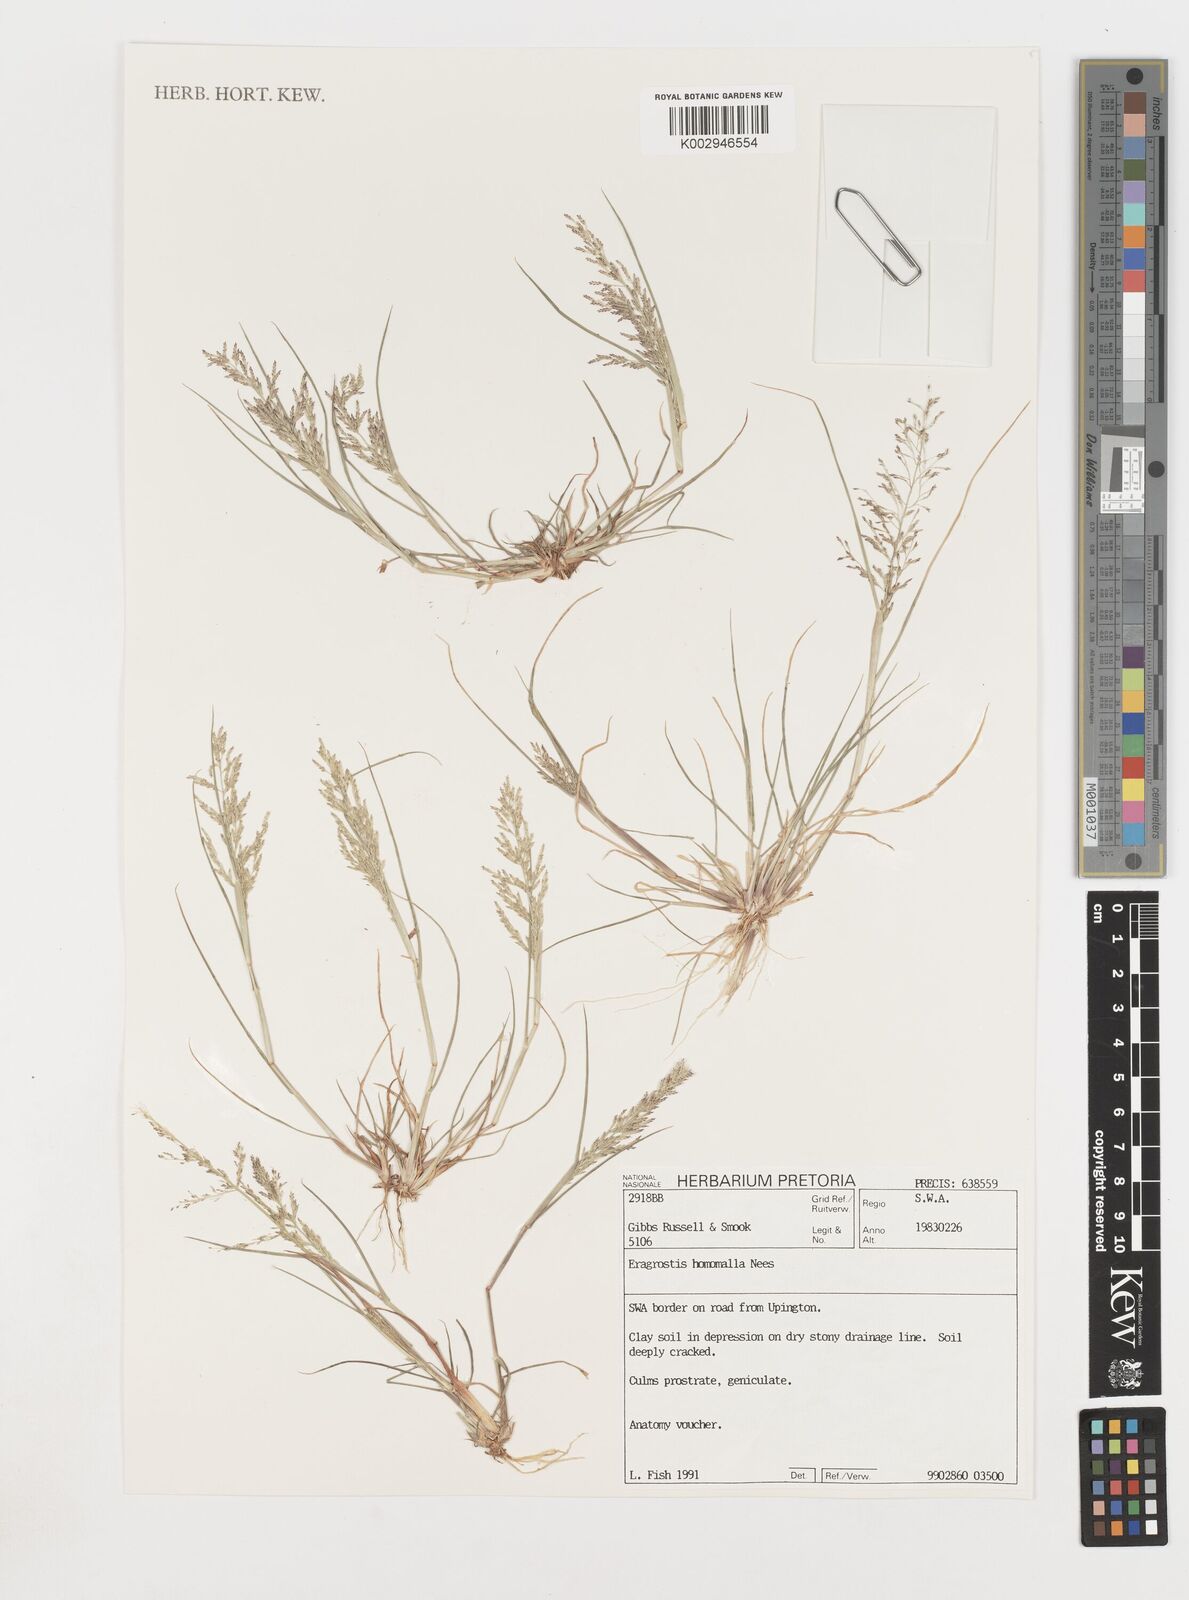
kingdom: Plantae
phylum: Tracheophyta
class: Liliopsida
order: Poales
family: Poaceae
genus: Eragrostis
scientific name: Eragrostis homomalla
